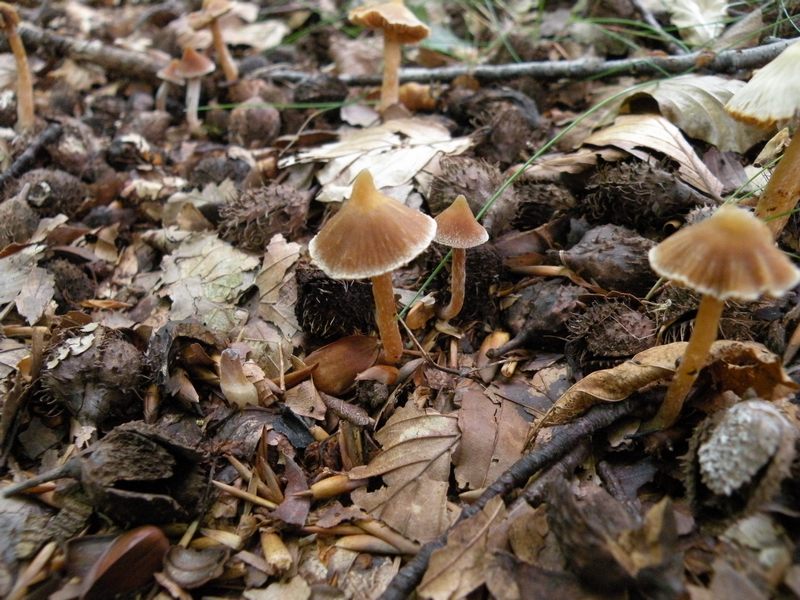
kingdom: Fungi
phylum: Basidiomycota
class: Agaricomycetes
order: Agaricales
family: Cortinariaceae
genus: Cortinarius
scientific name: Cortinarius acutus
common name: spids slørhat
